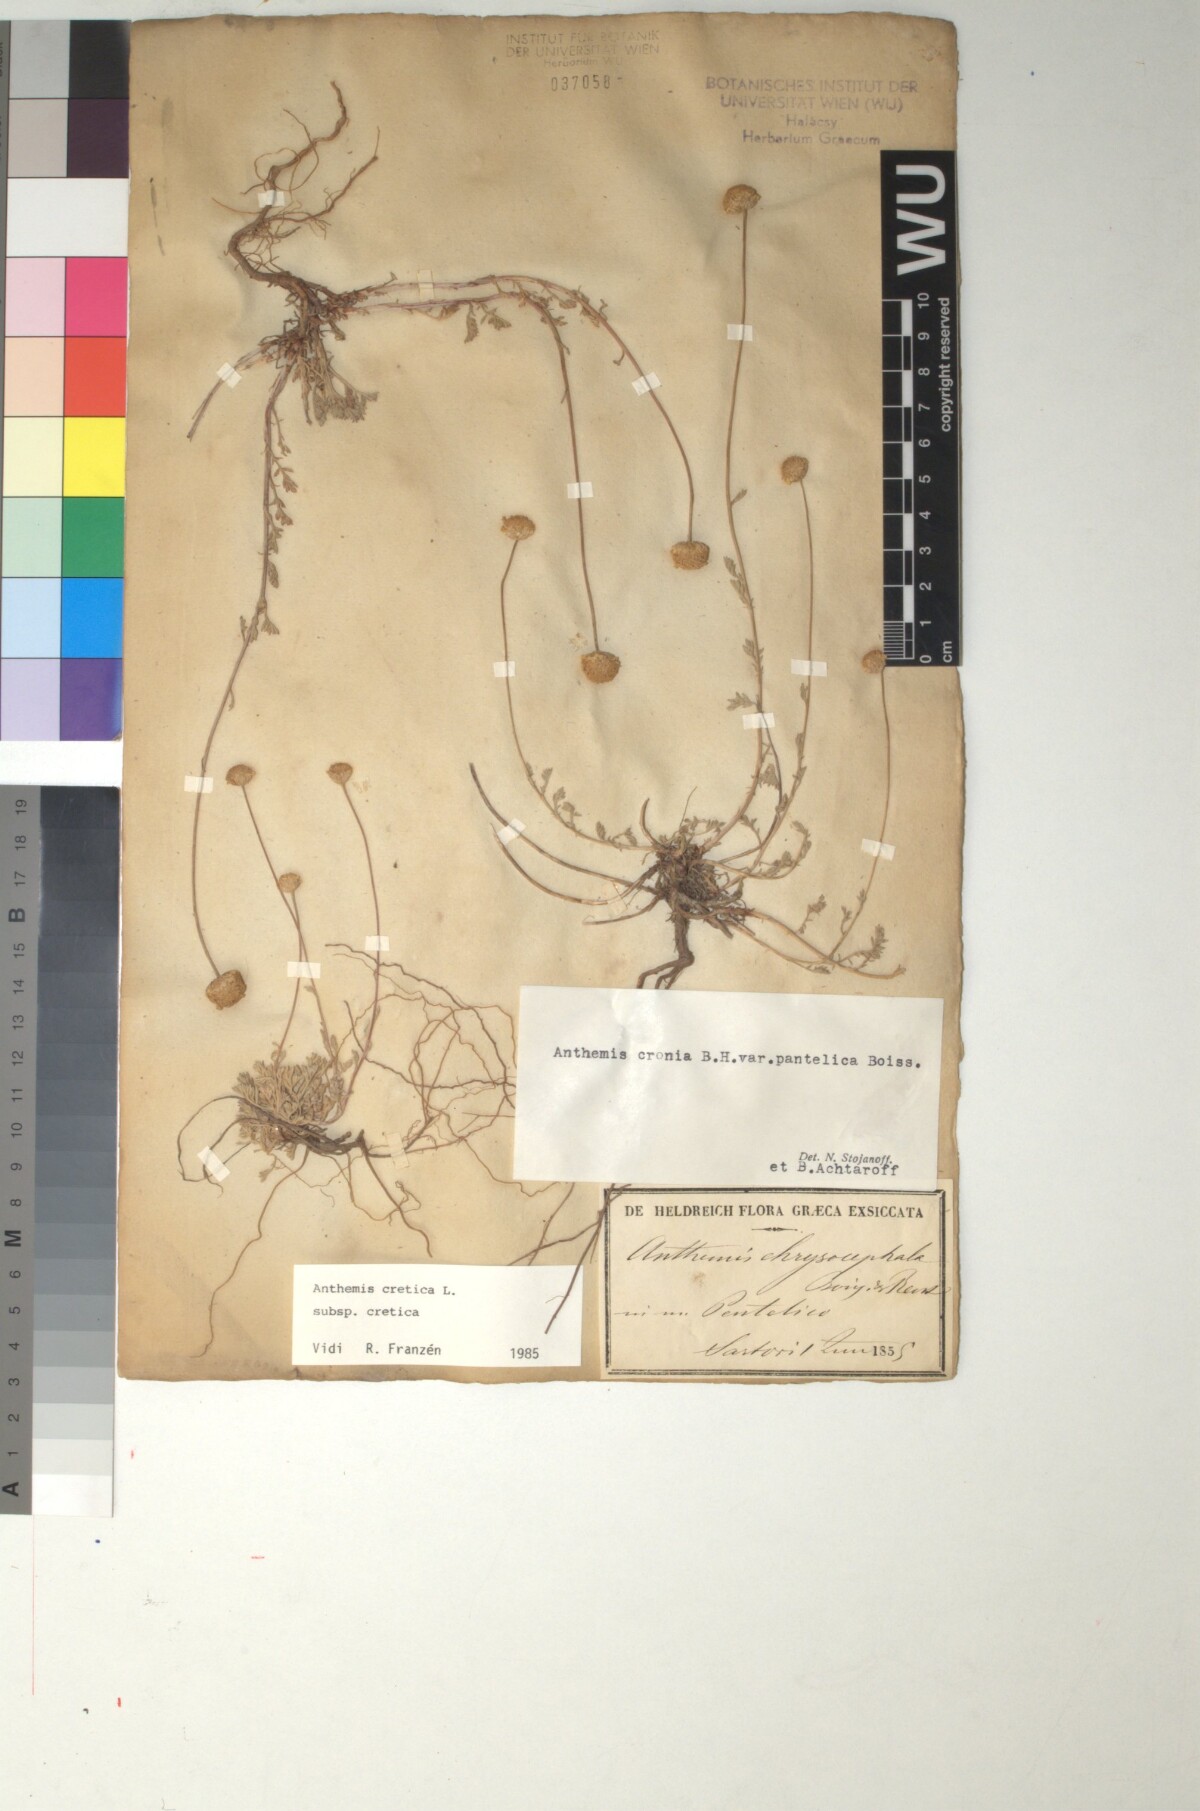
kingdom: Plantae
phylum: Tracheophyta
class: Magnoliopsida
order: Asterales
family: Asteraceae
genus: Anthemis
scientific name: Anthemis cretica
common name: Mountain dog-daisy
